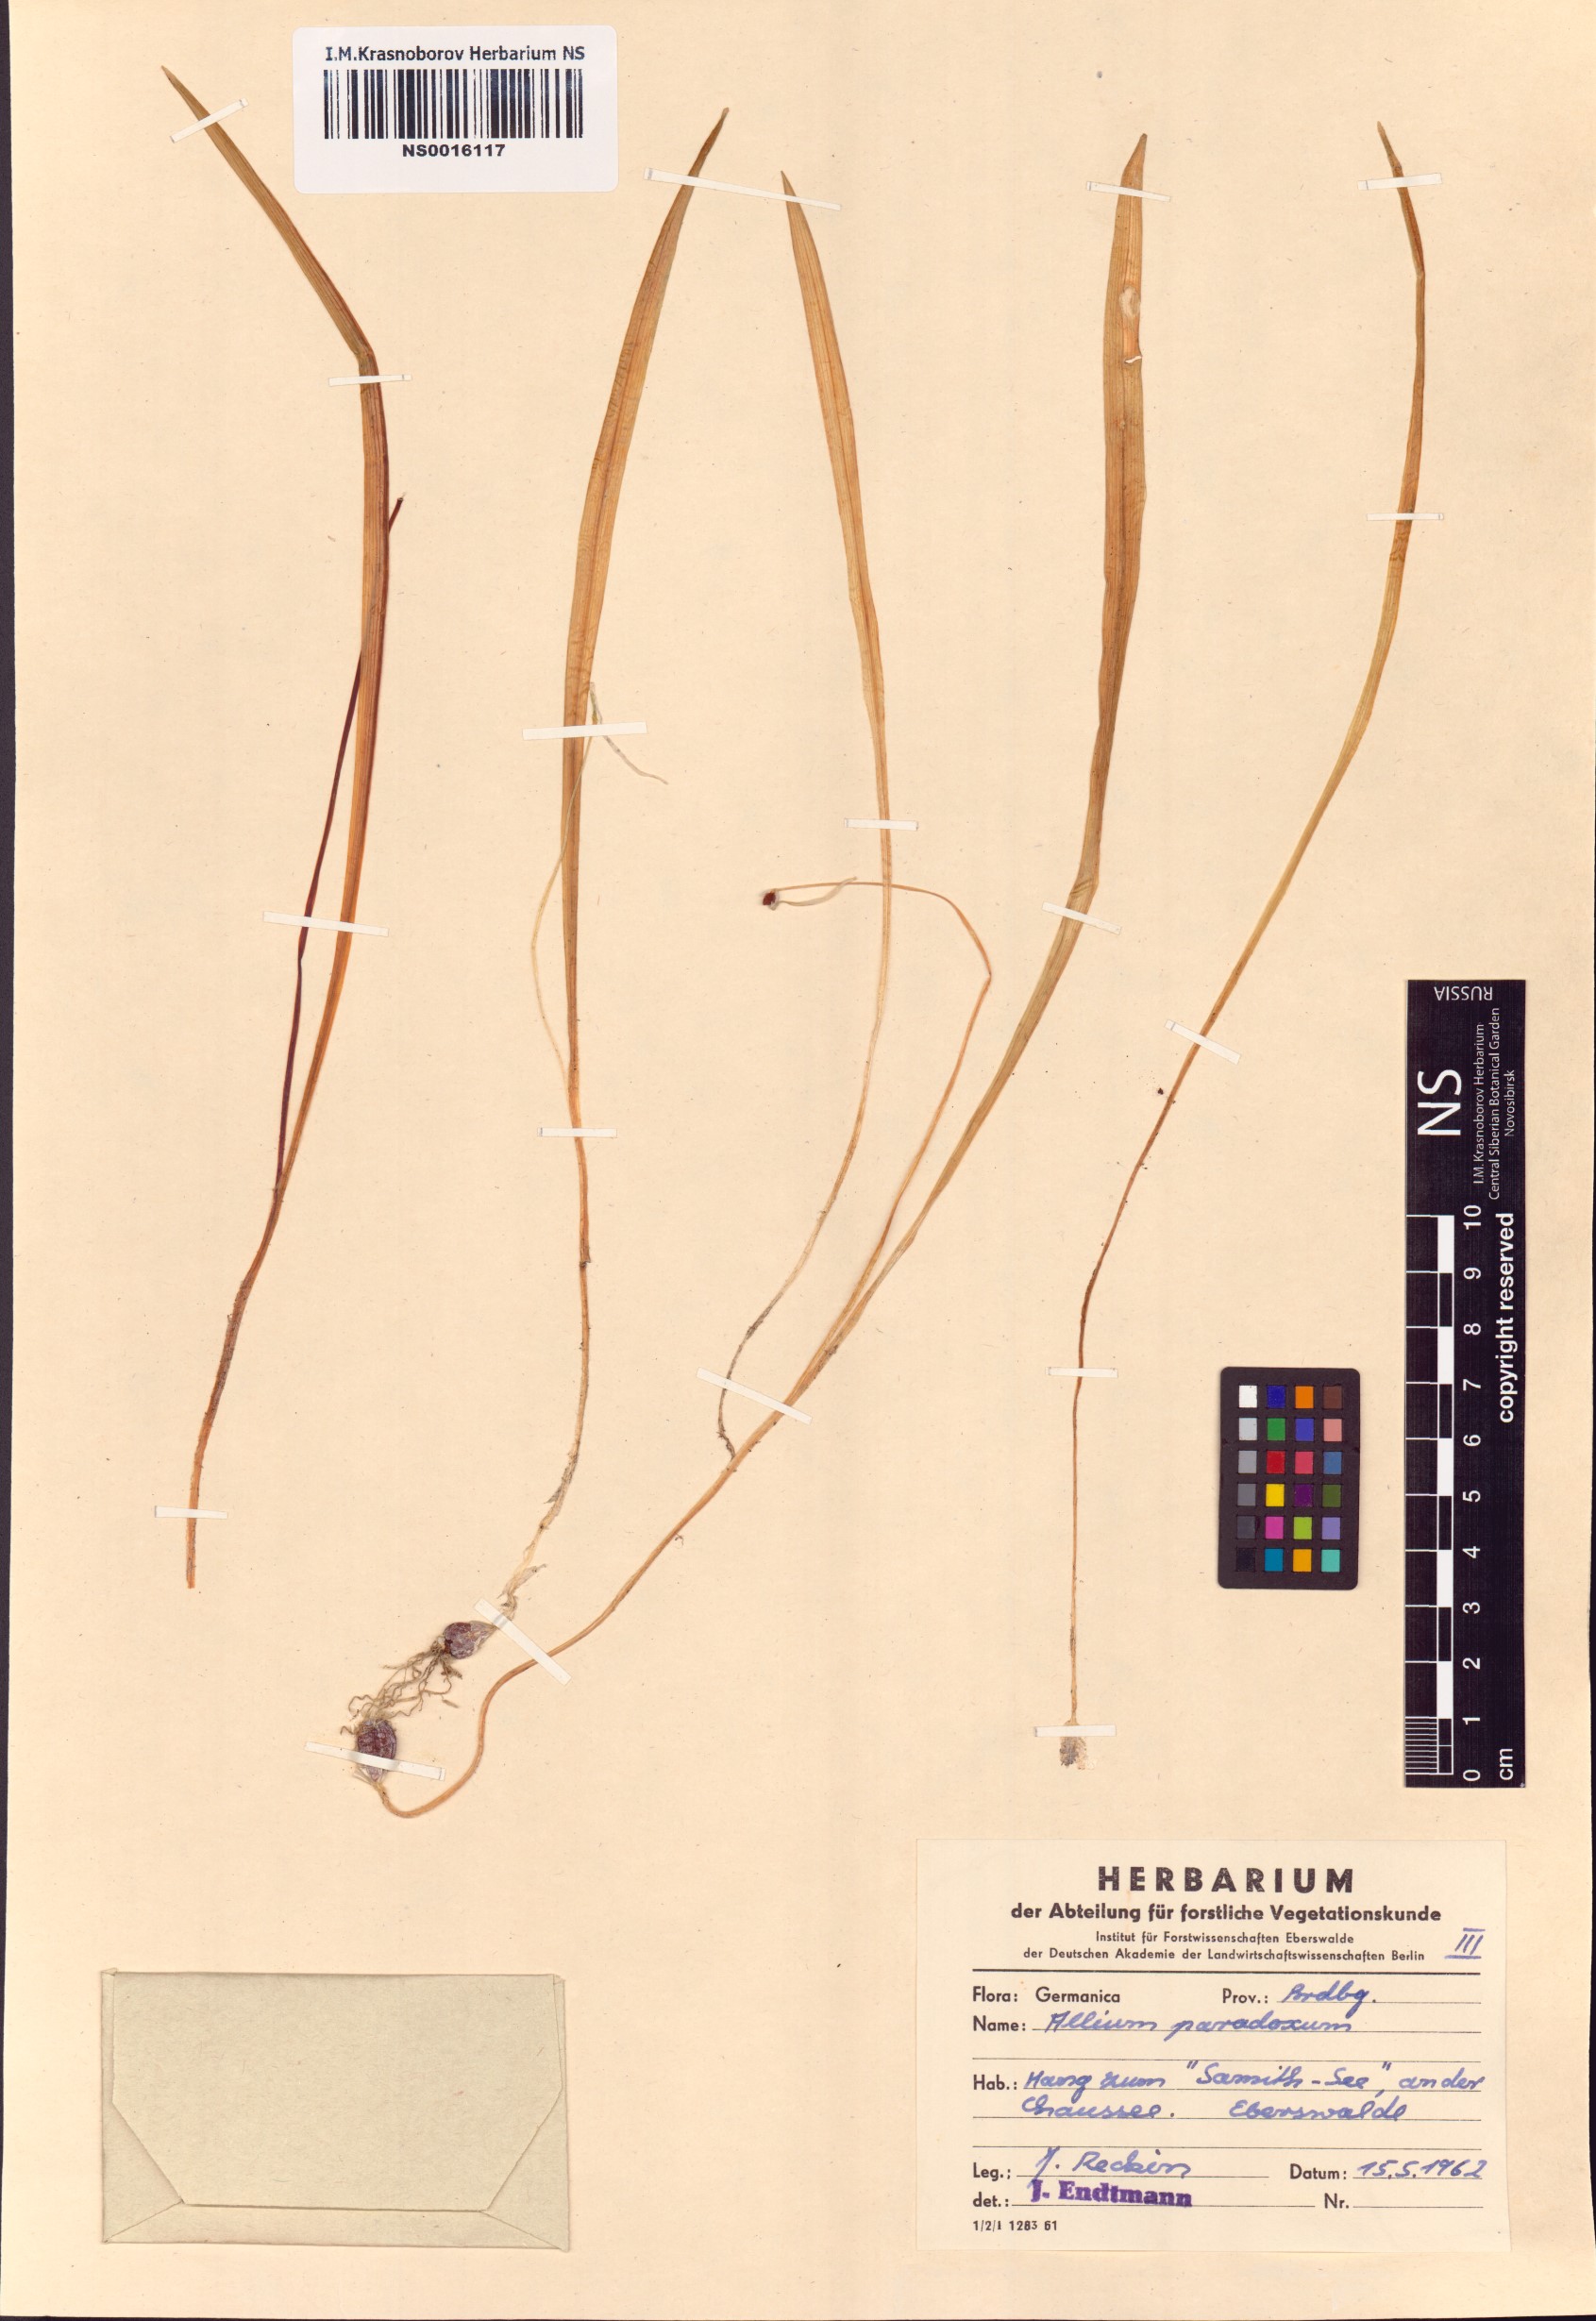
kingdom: Plantae
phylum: Tracheophyta
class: Liliopsida
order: Asparagales
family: Amaryllidaceae
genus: Allium
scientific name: Allium paradoxum
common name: Few-flowered garlic
